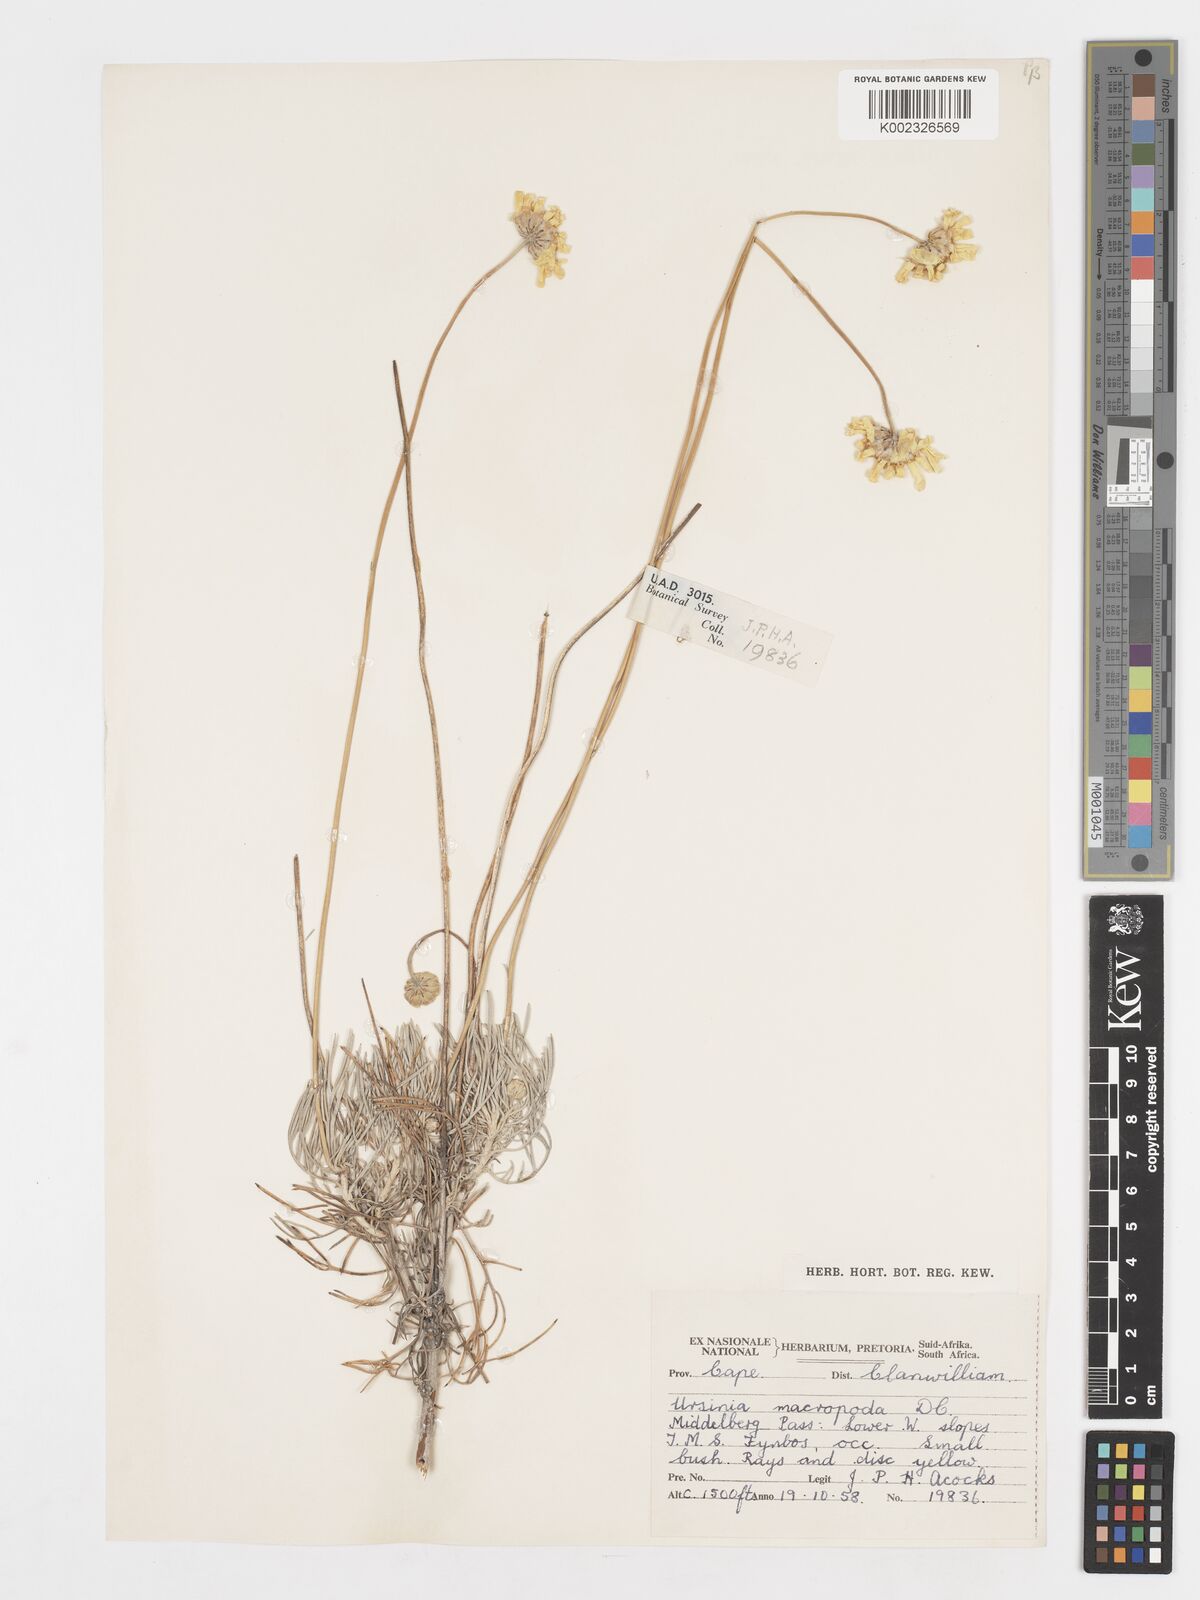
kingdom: Plantae
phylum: Tracheophyta
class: Magnoliopsida
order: Asterales
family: Asteraceae
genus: Ursinia
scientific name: Ursinia macropoda
